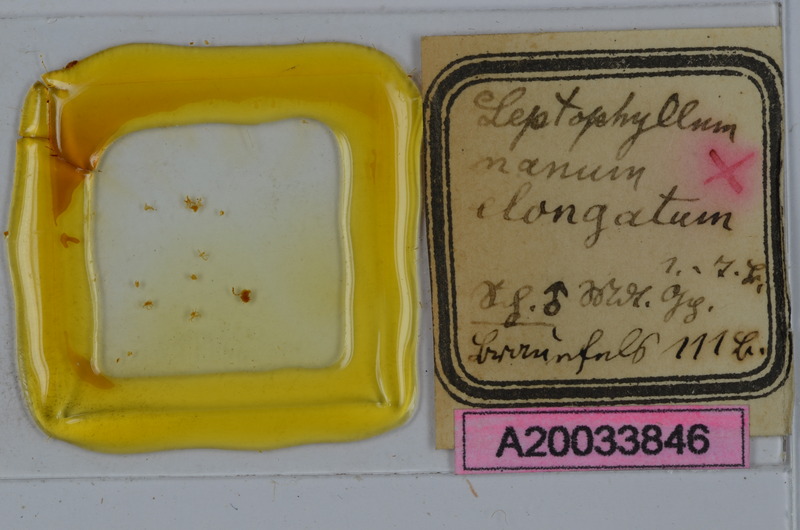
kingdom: Animalia
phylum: Arthropoda
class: Diplopoda
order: Julida
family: Julidae
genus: Leptophyllum
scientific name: Leptophyllum nanum
